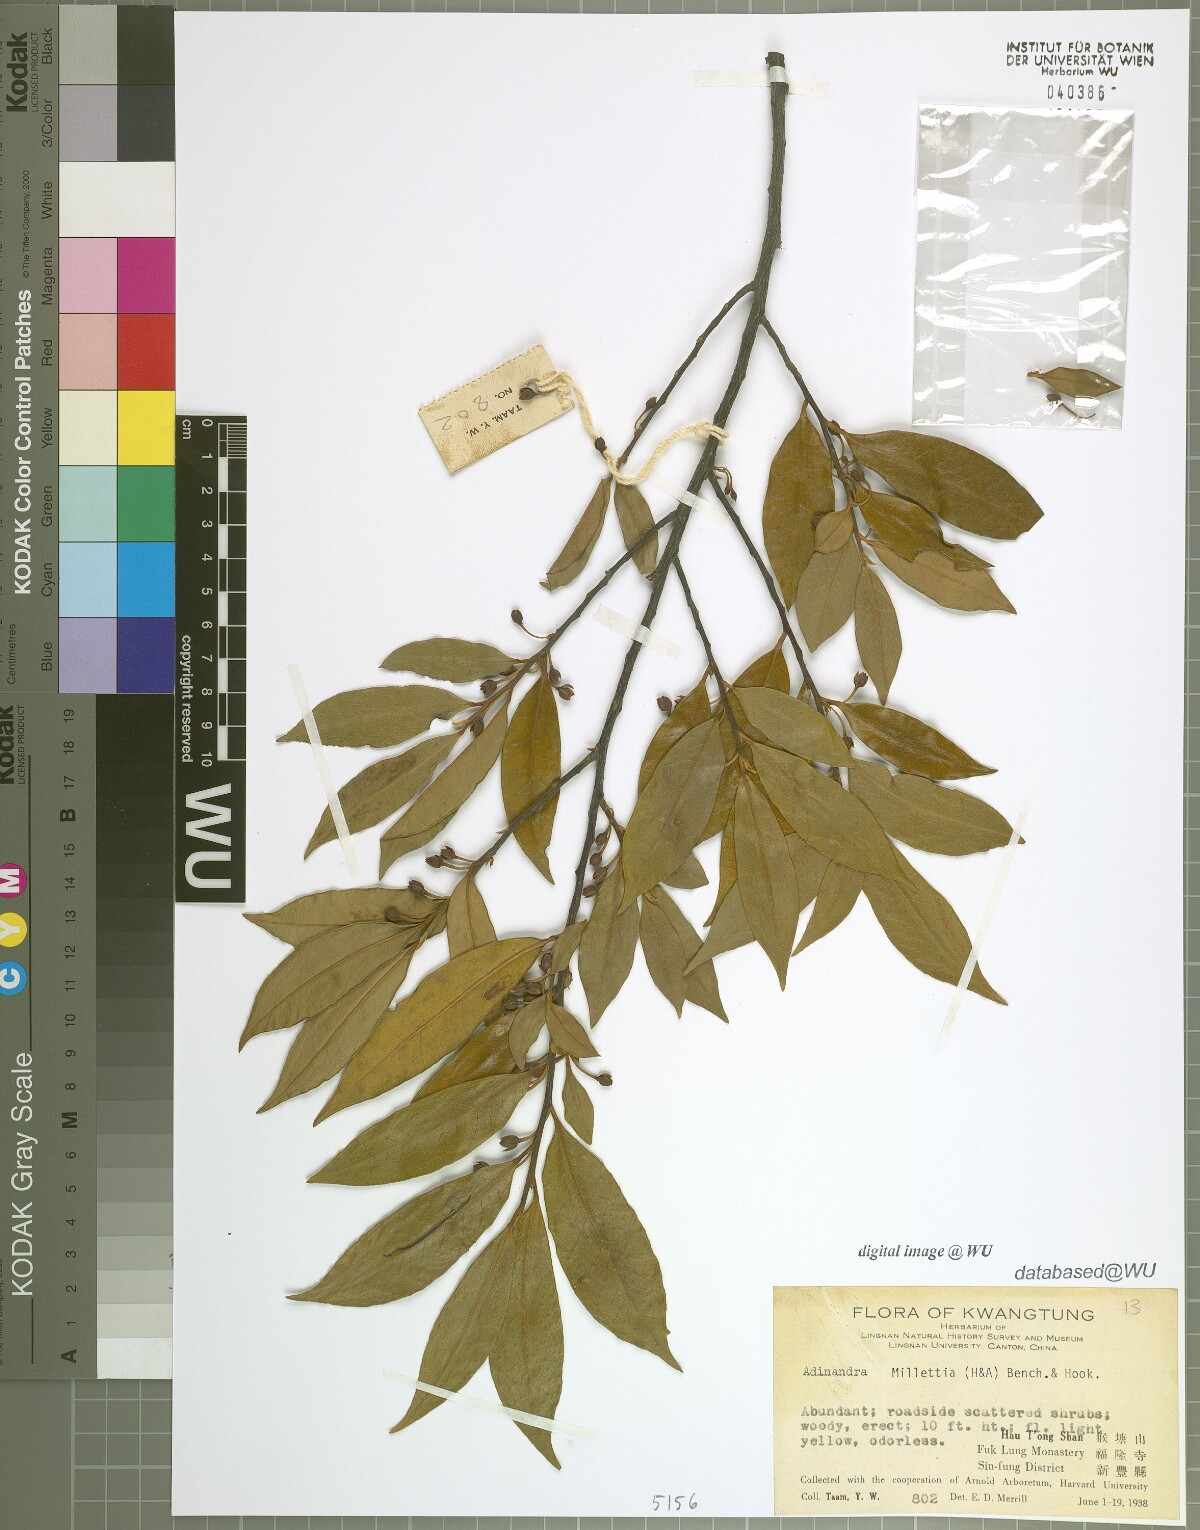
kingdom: Plantae
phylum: Tracheophyta
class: Magnoliopsida
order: Ericales
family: Pentaphylacaceae
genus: Adinandra
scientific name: Adinandra millettii
